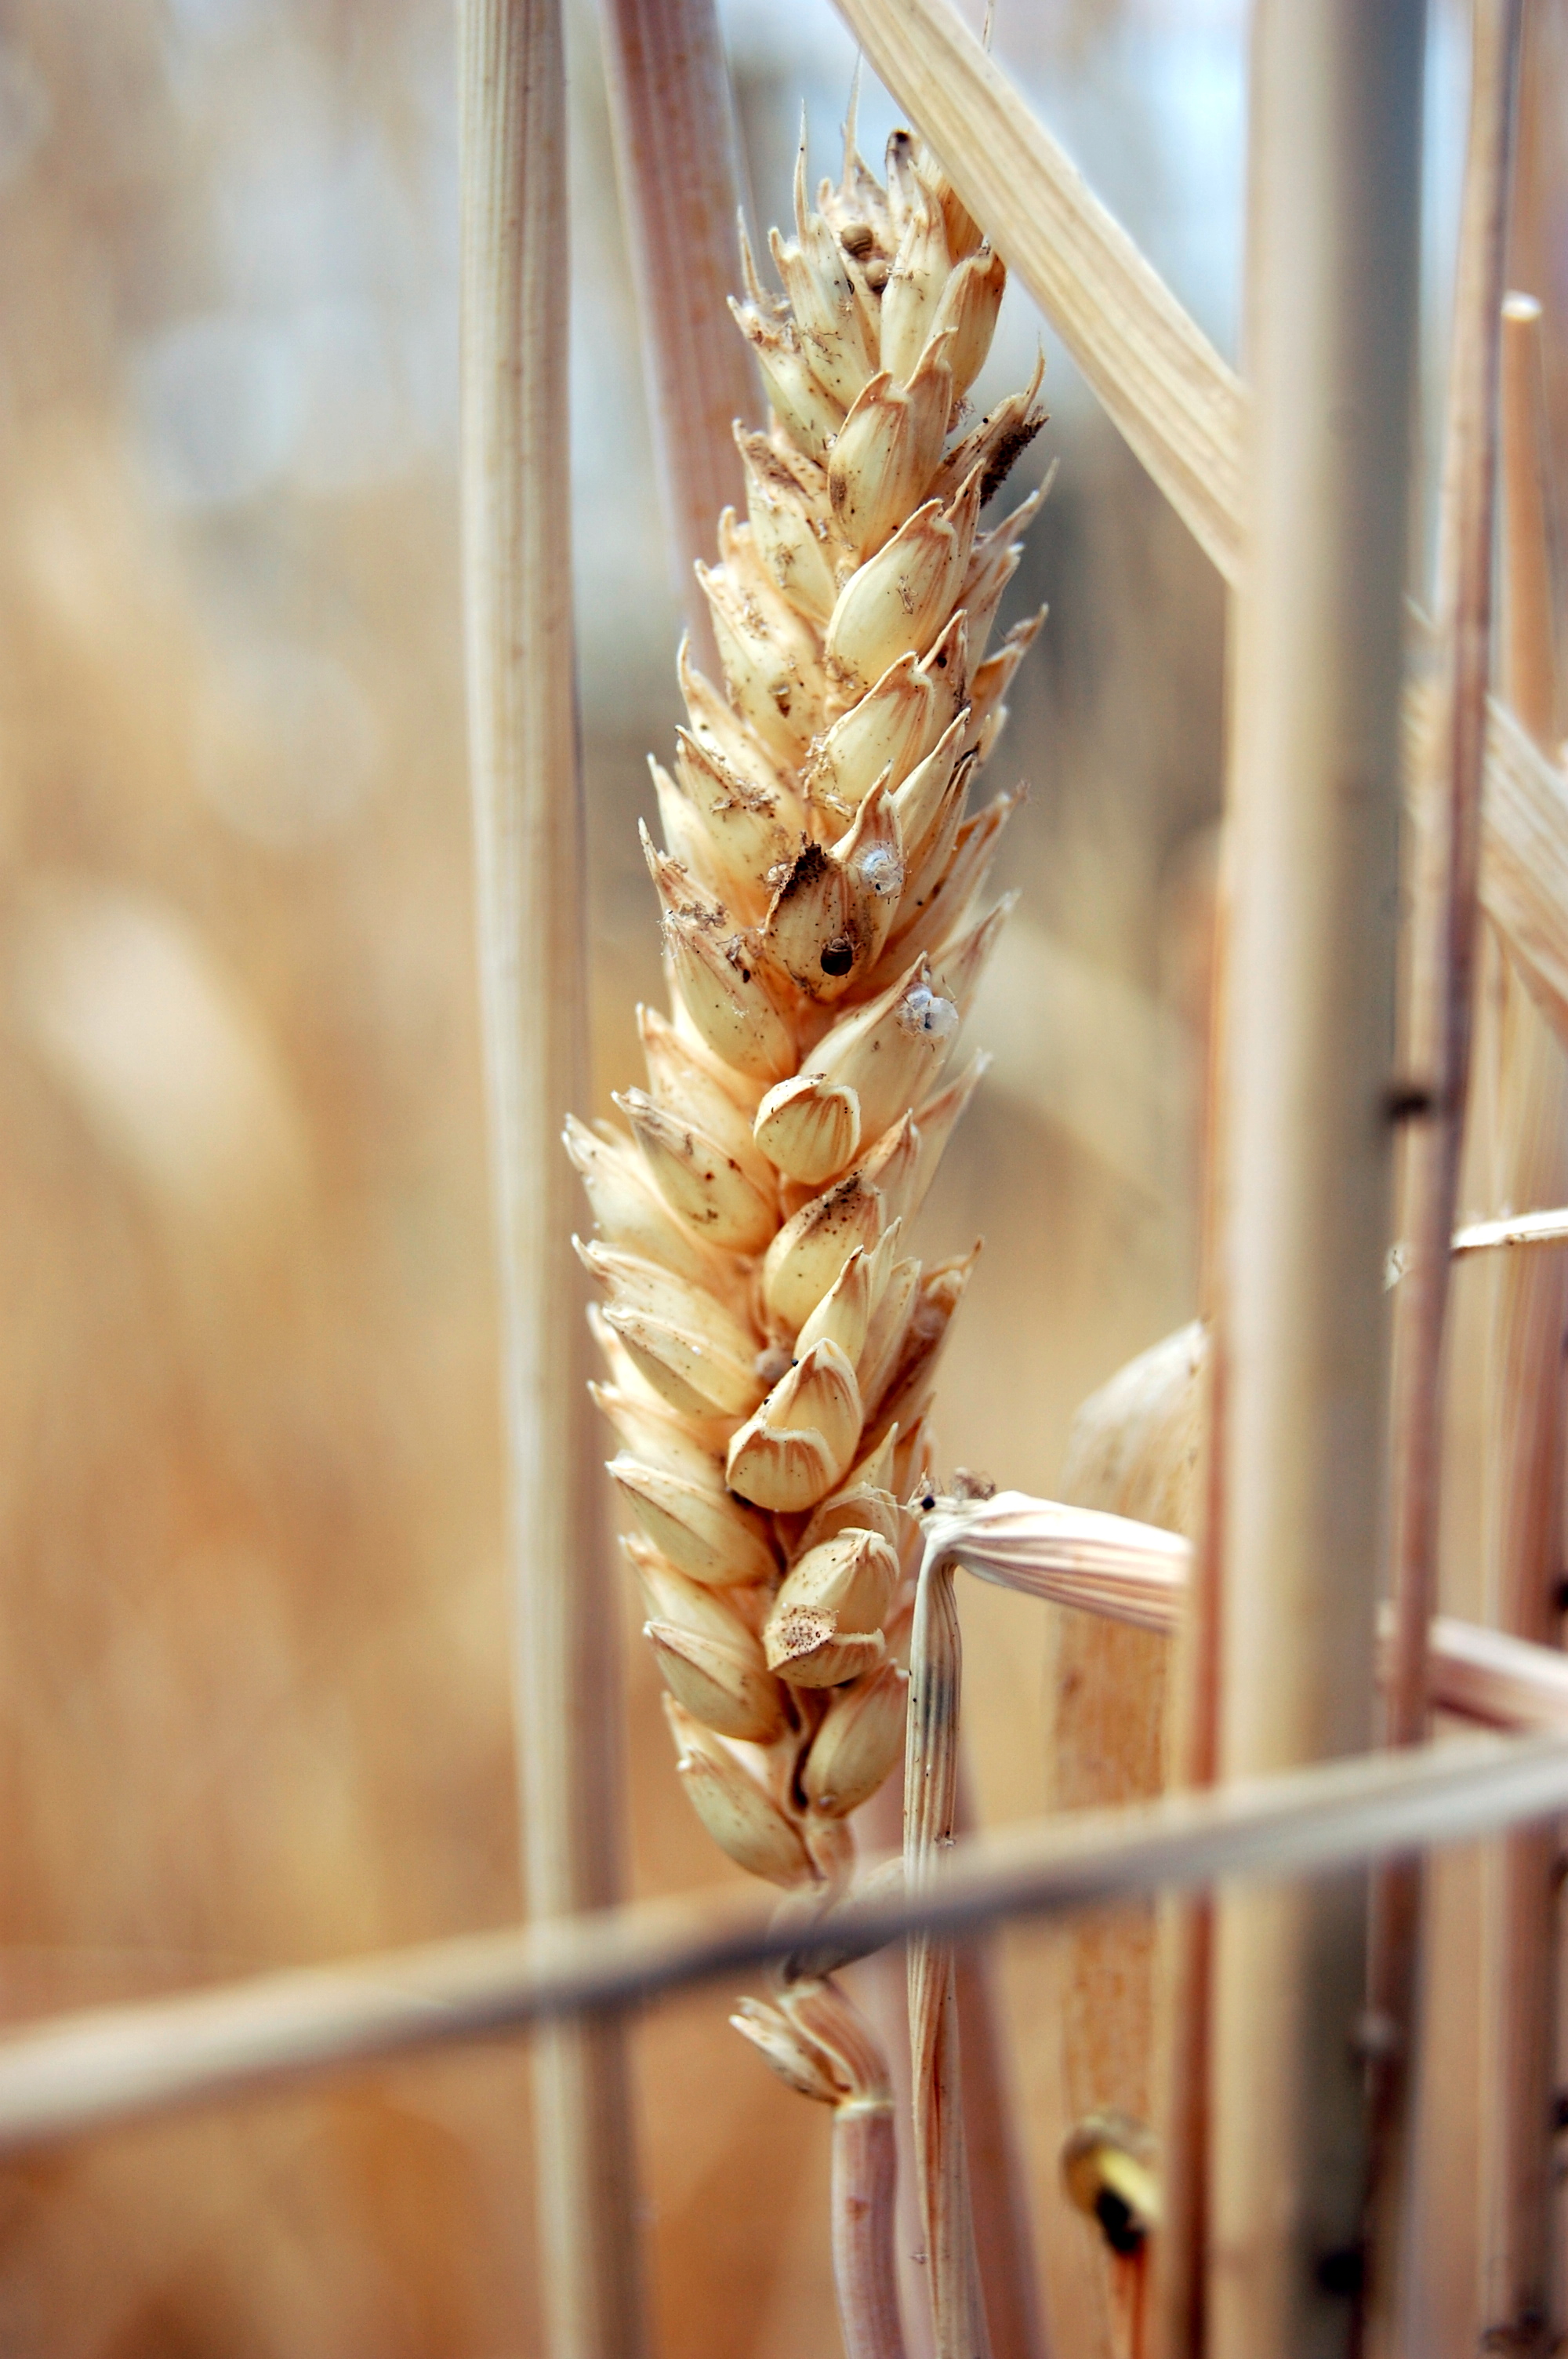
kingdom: Plantae
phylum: Tracheophyta
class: Liliopsida
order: Poales
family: Poaceae
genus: Triticum
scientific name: Triticum aestivum
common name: Common wheat
